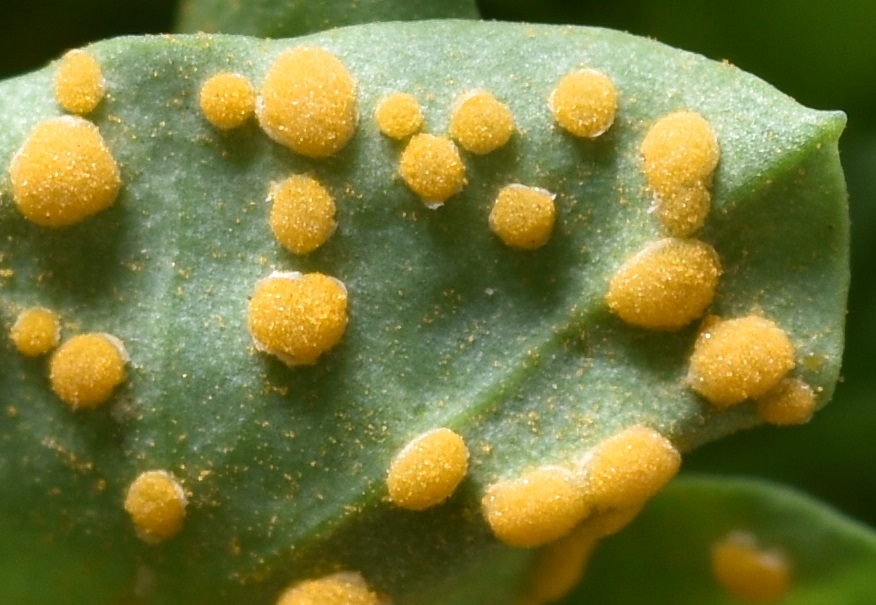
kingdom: Fungi
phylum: Basidiomycota
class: Pucciniomycetes
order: Pucciniales
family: Melampsoraceae
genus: Melampsora
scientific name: Melampsora euphorbiae
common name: vortemælk-skorperust
